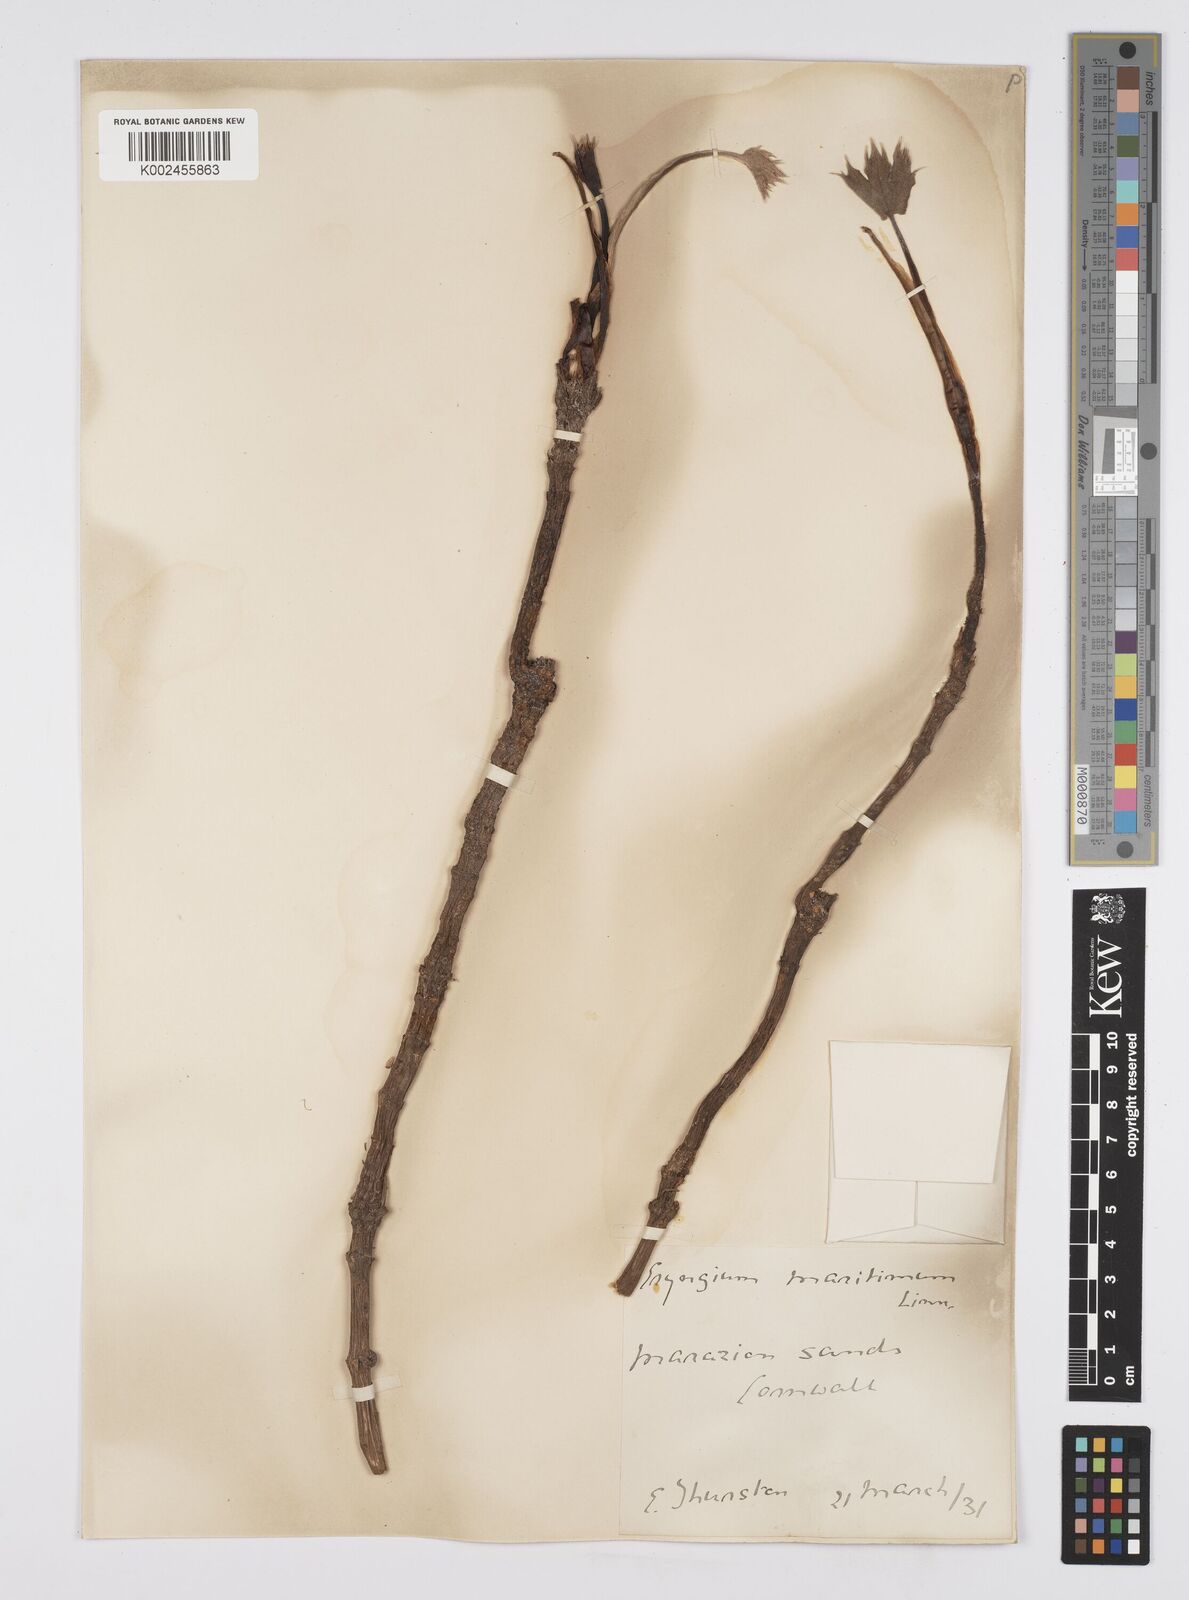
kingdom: Plantae
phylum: Tracheophyta
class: Magnoliopsida
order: Apiales
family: Apiaceae
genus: Eryngium
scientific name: Eryngium maritimum
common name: Sea-holly
